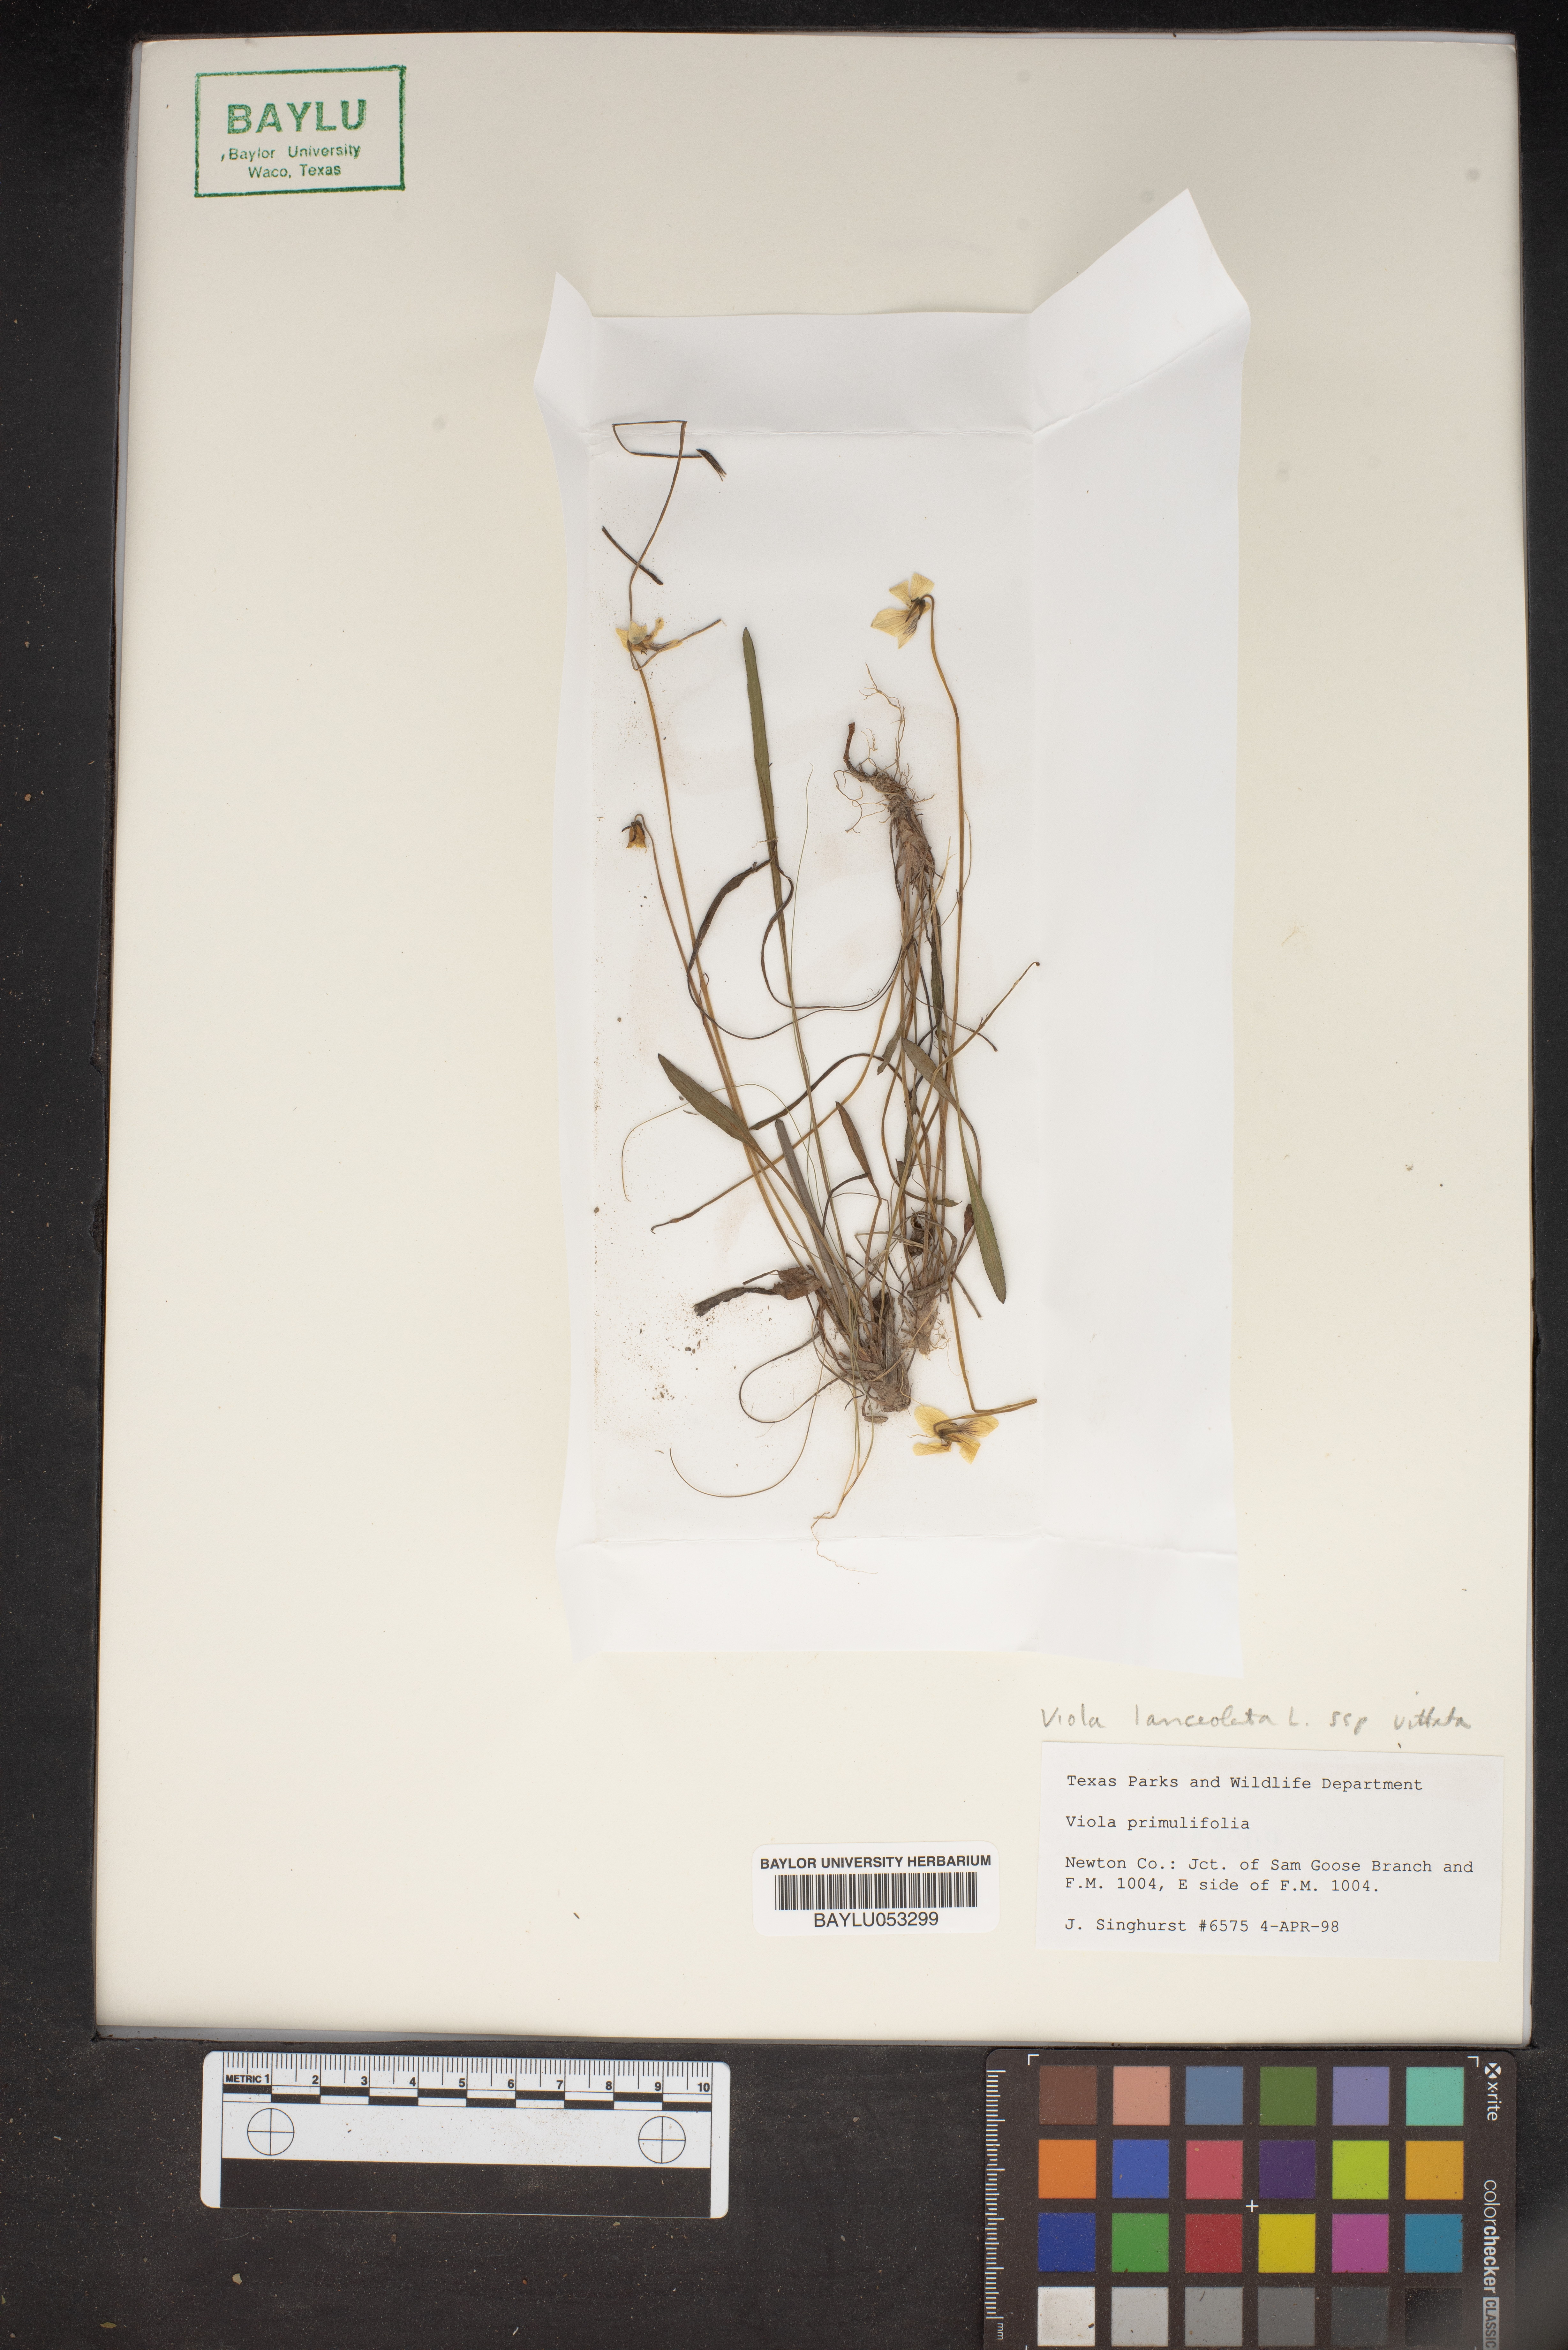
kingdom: Plantae
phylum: Tracheophyta
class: Magnoliopsida
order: Malpighiales
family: Violaceae
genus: Viola
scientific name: Viola primulifolia
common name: Primrose-leaf violet
